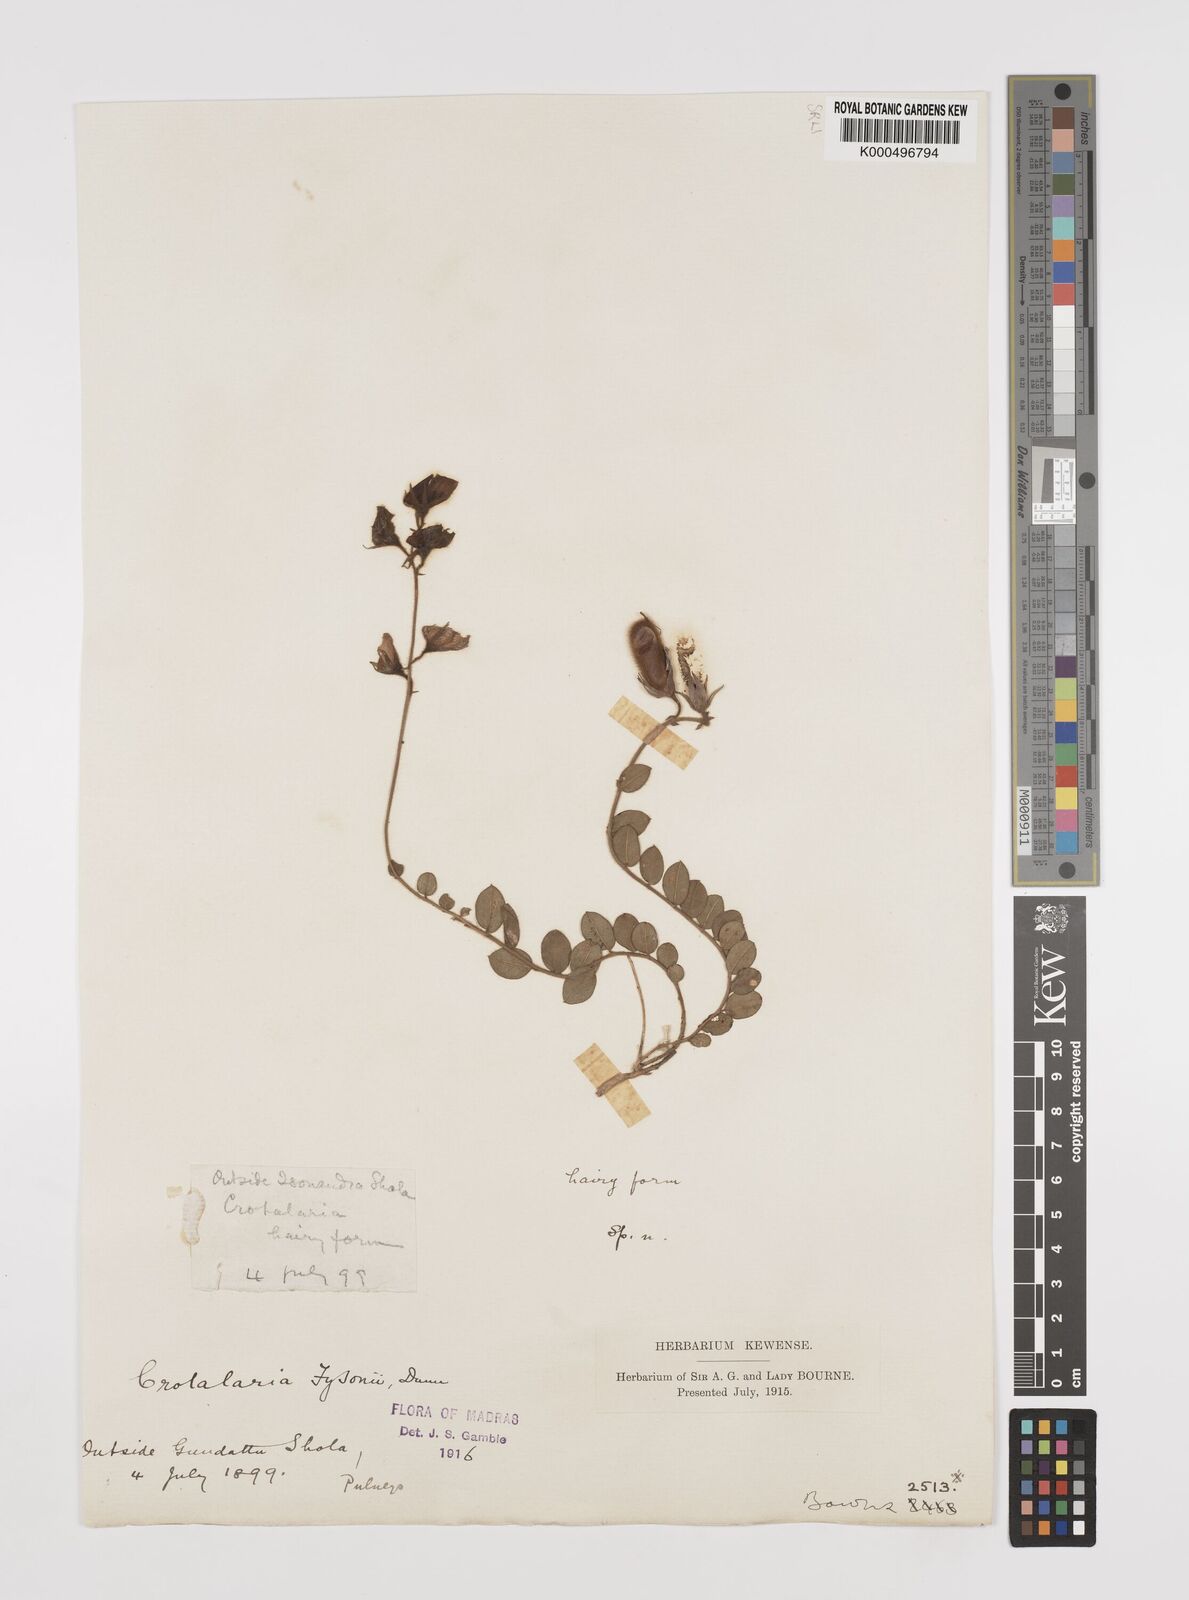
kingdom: Plantae
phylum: Tracheophyta
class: Magnoliopsida
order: Fabales
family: Fabaceae
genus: Crotalaria
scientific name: Crotalaria fysonii
